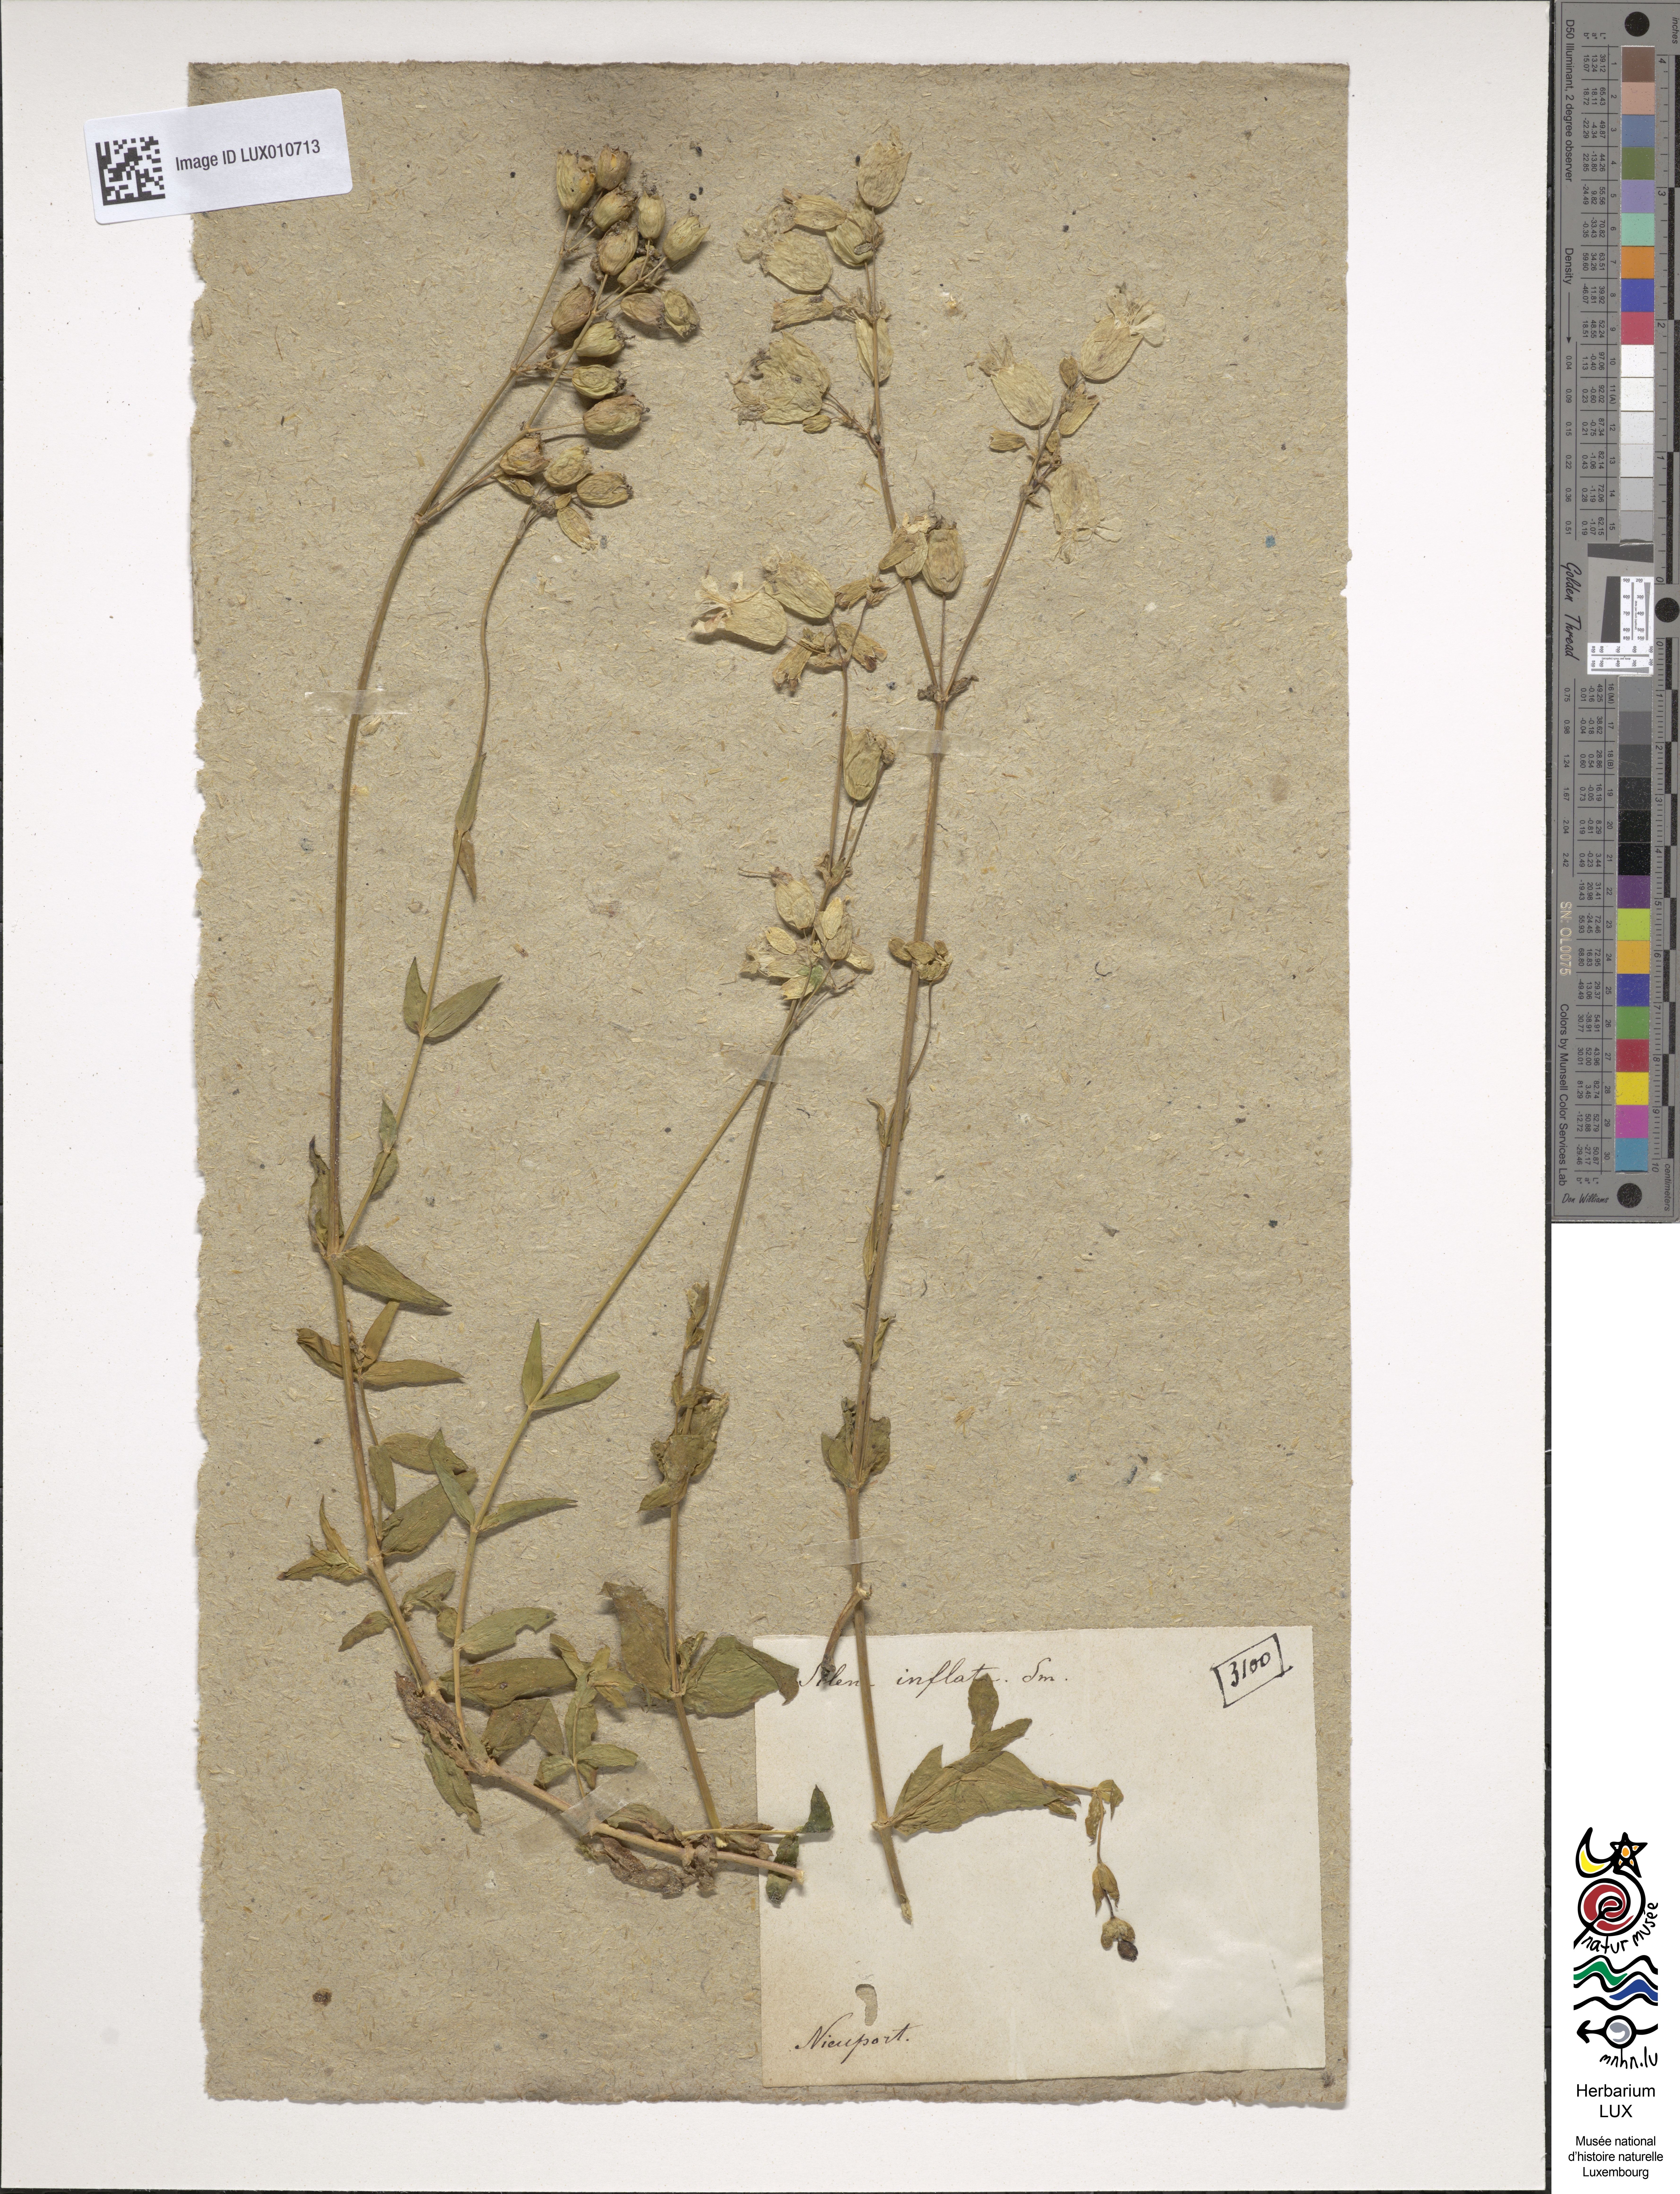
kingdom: Plantae
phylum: Tracheophyta
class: Magnoliopsida
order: Caryophyllales
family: Caryophyllaceae
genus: Silene
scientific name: Silene vulgaris
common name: Bladder campion
